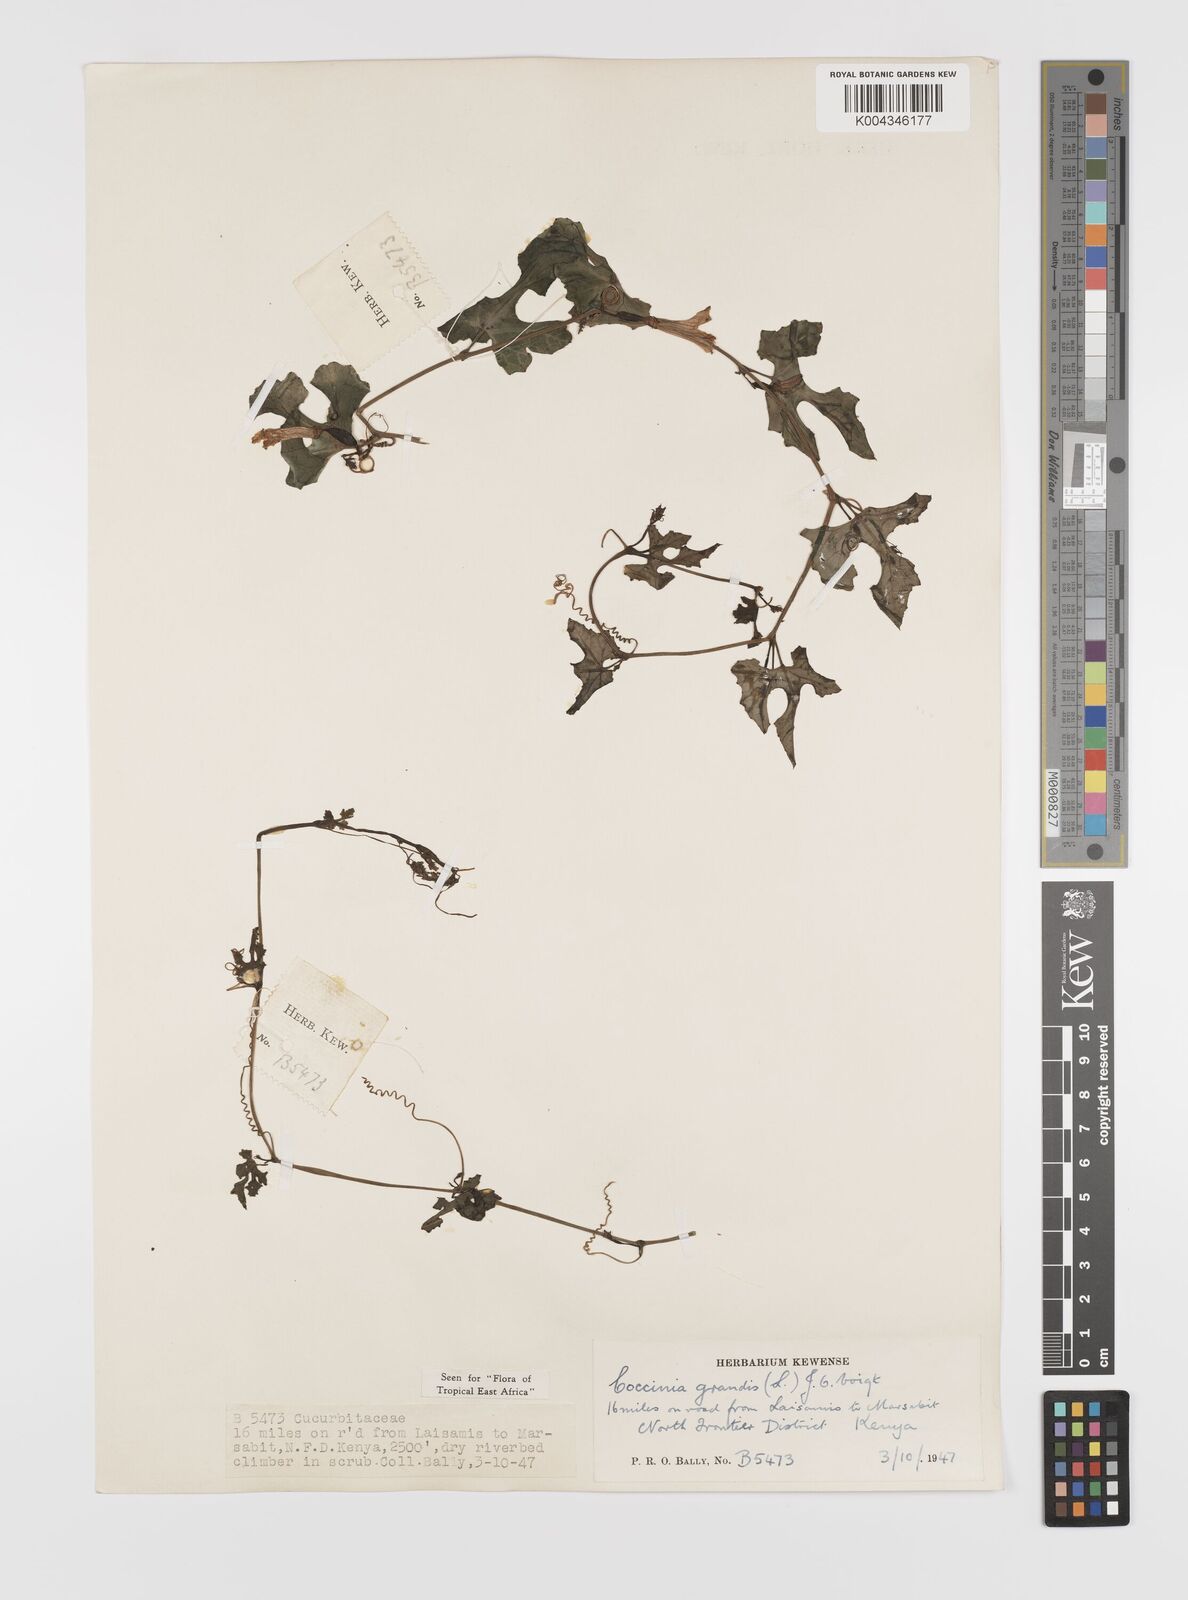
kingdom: Plantae
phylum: Tracheophyta
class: Magnoliopsida
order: Cucurbitales
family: Cucurbitaceae
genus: Coccinia
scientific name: Coccinia grandis
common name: Ivy gourd
